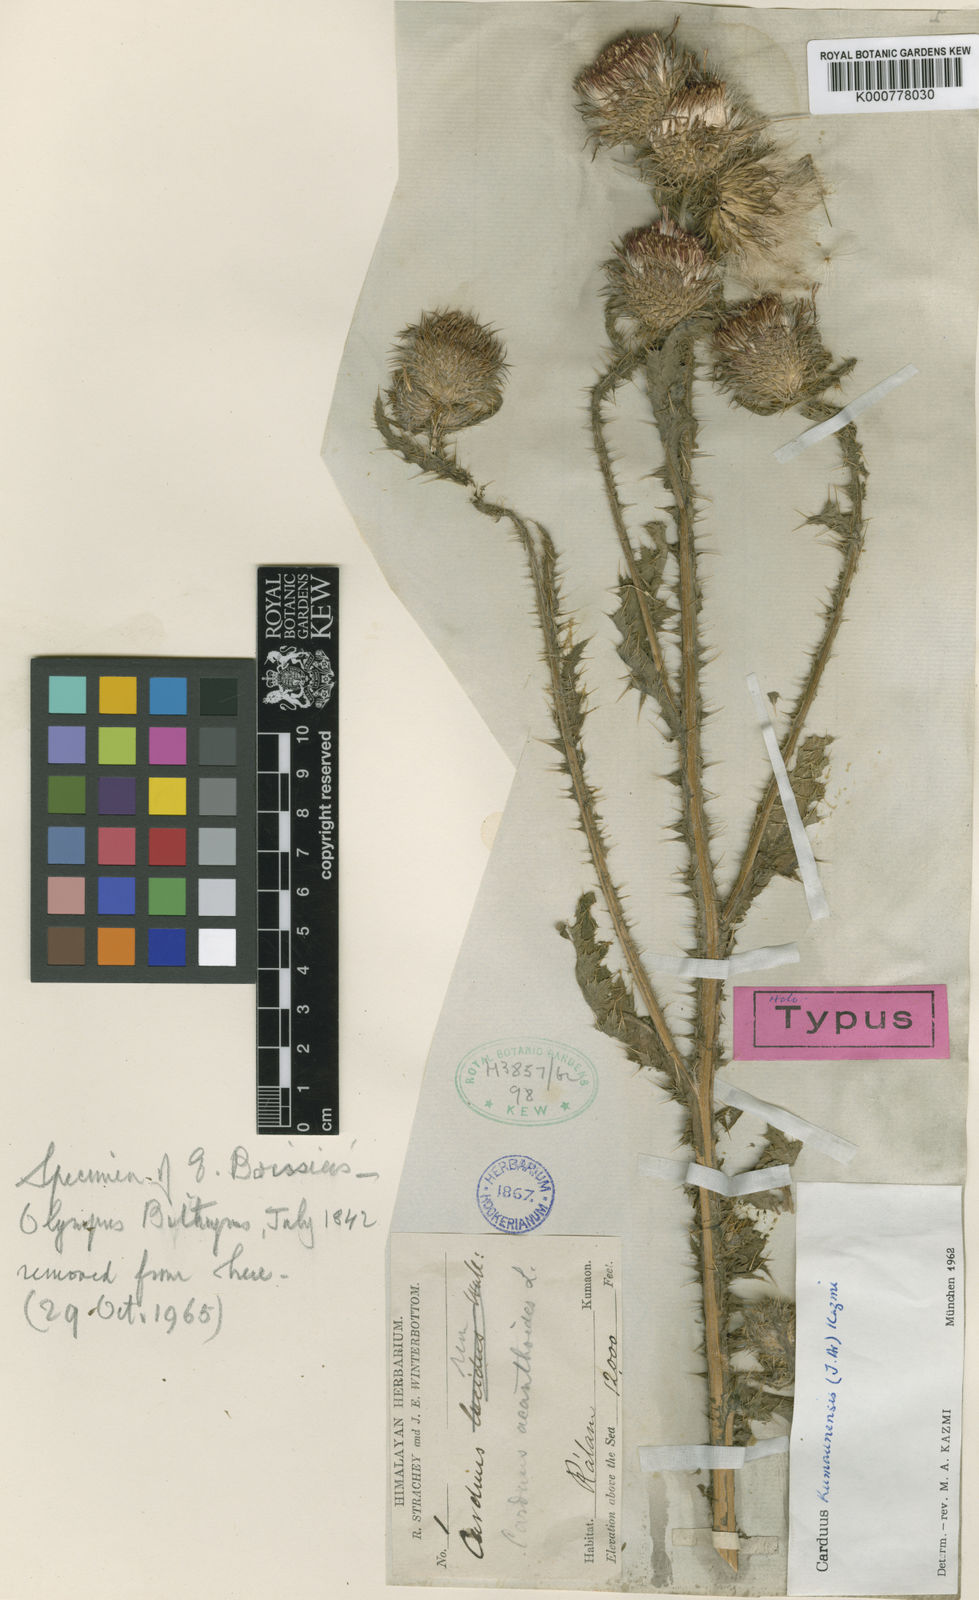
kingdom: Plantae
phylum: Tracheophyta
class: Magnoliopsida
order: Asterales
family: Asteraceae
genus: Carduus
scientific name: Carduus
